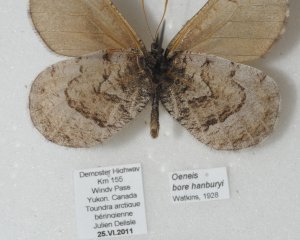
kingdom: Animalia
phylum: Arthropoda
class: Insecta
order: Lepidoptera
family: Nymphalidae
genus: Oeneis
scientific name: Oeneis bore
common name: White-veined Arctic
